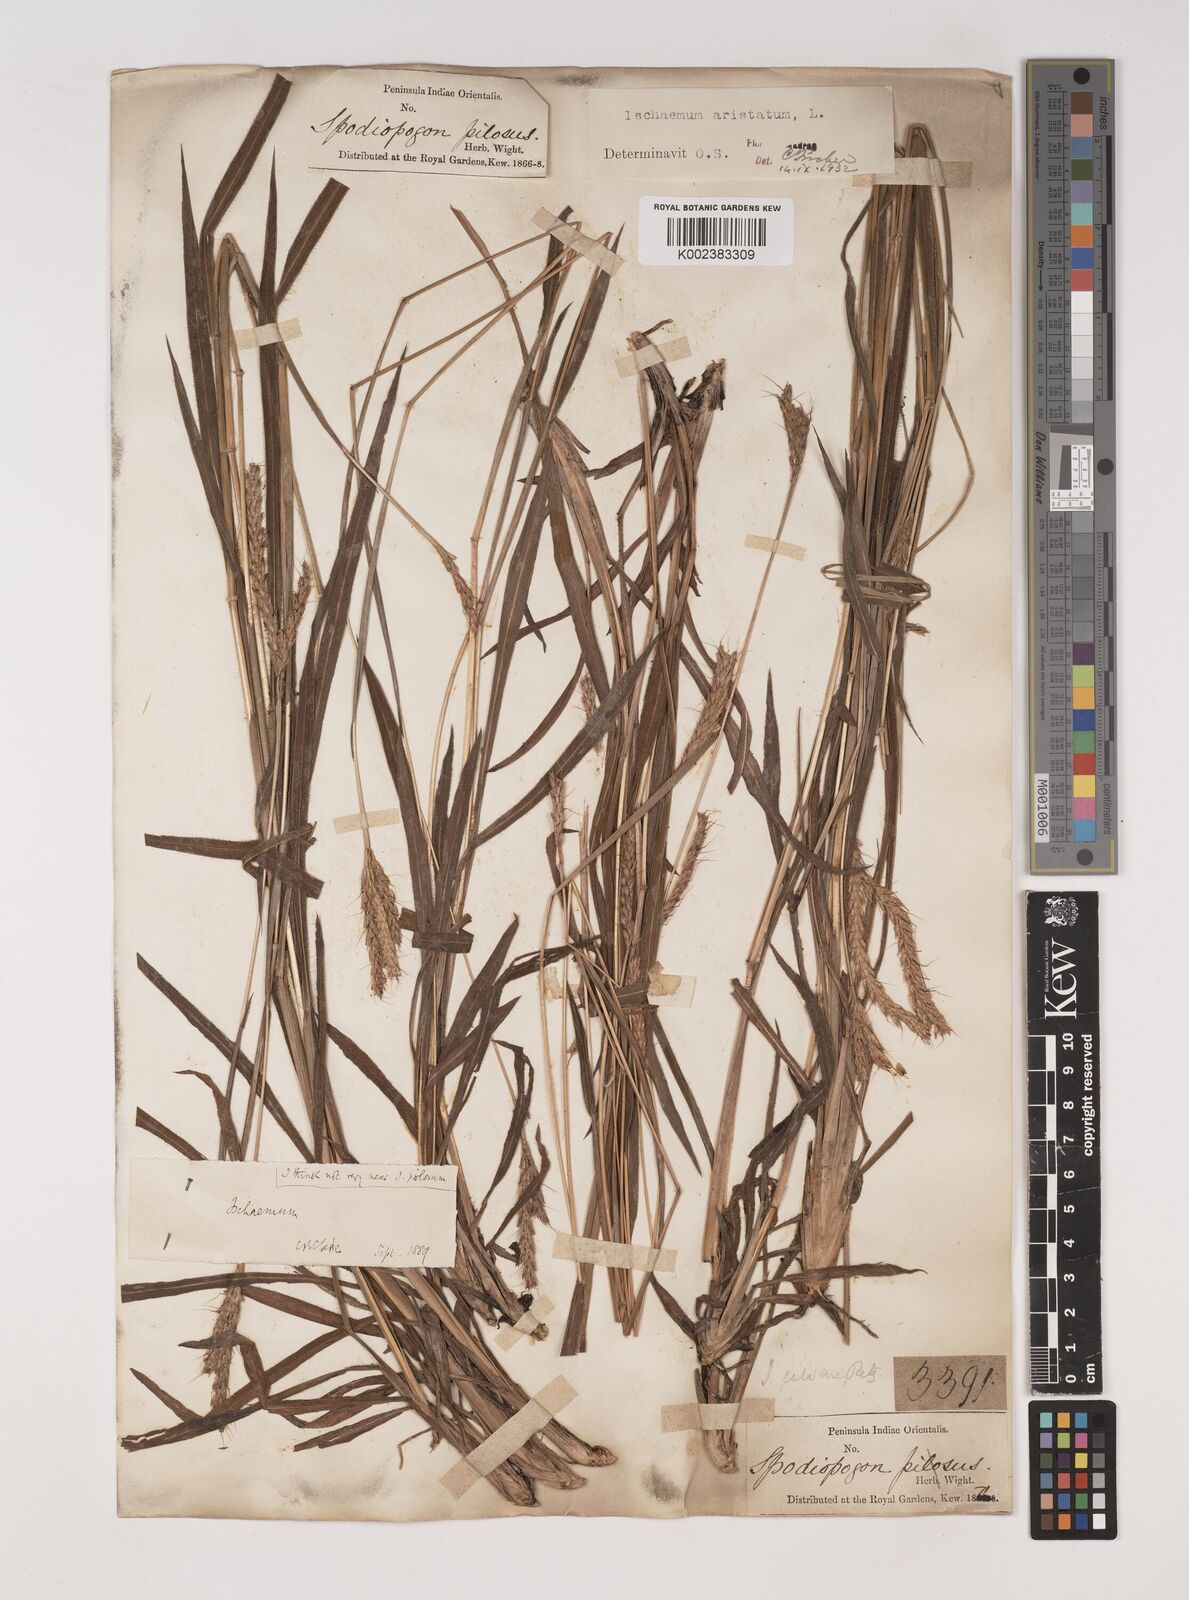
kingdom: Plantae
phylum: Tracheophyta
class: Liliopsida
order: Poales
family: Poaceae
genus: Polytrias
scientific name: Polytrias indica
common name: Indian murainagrass
